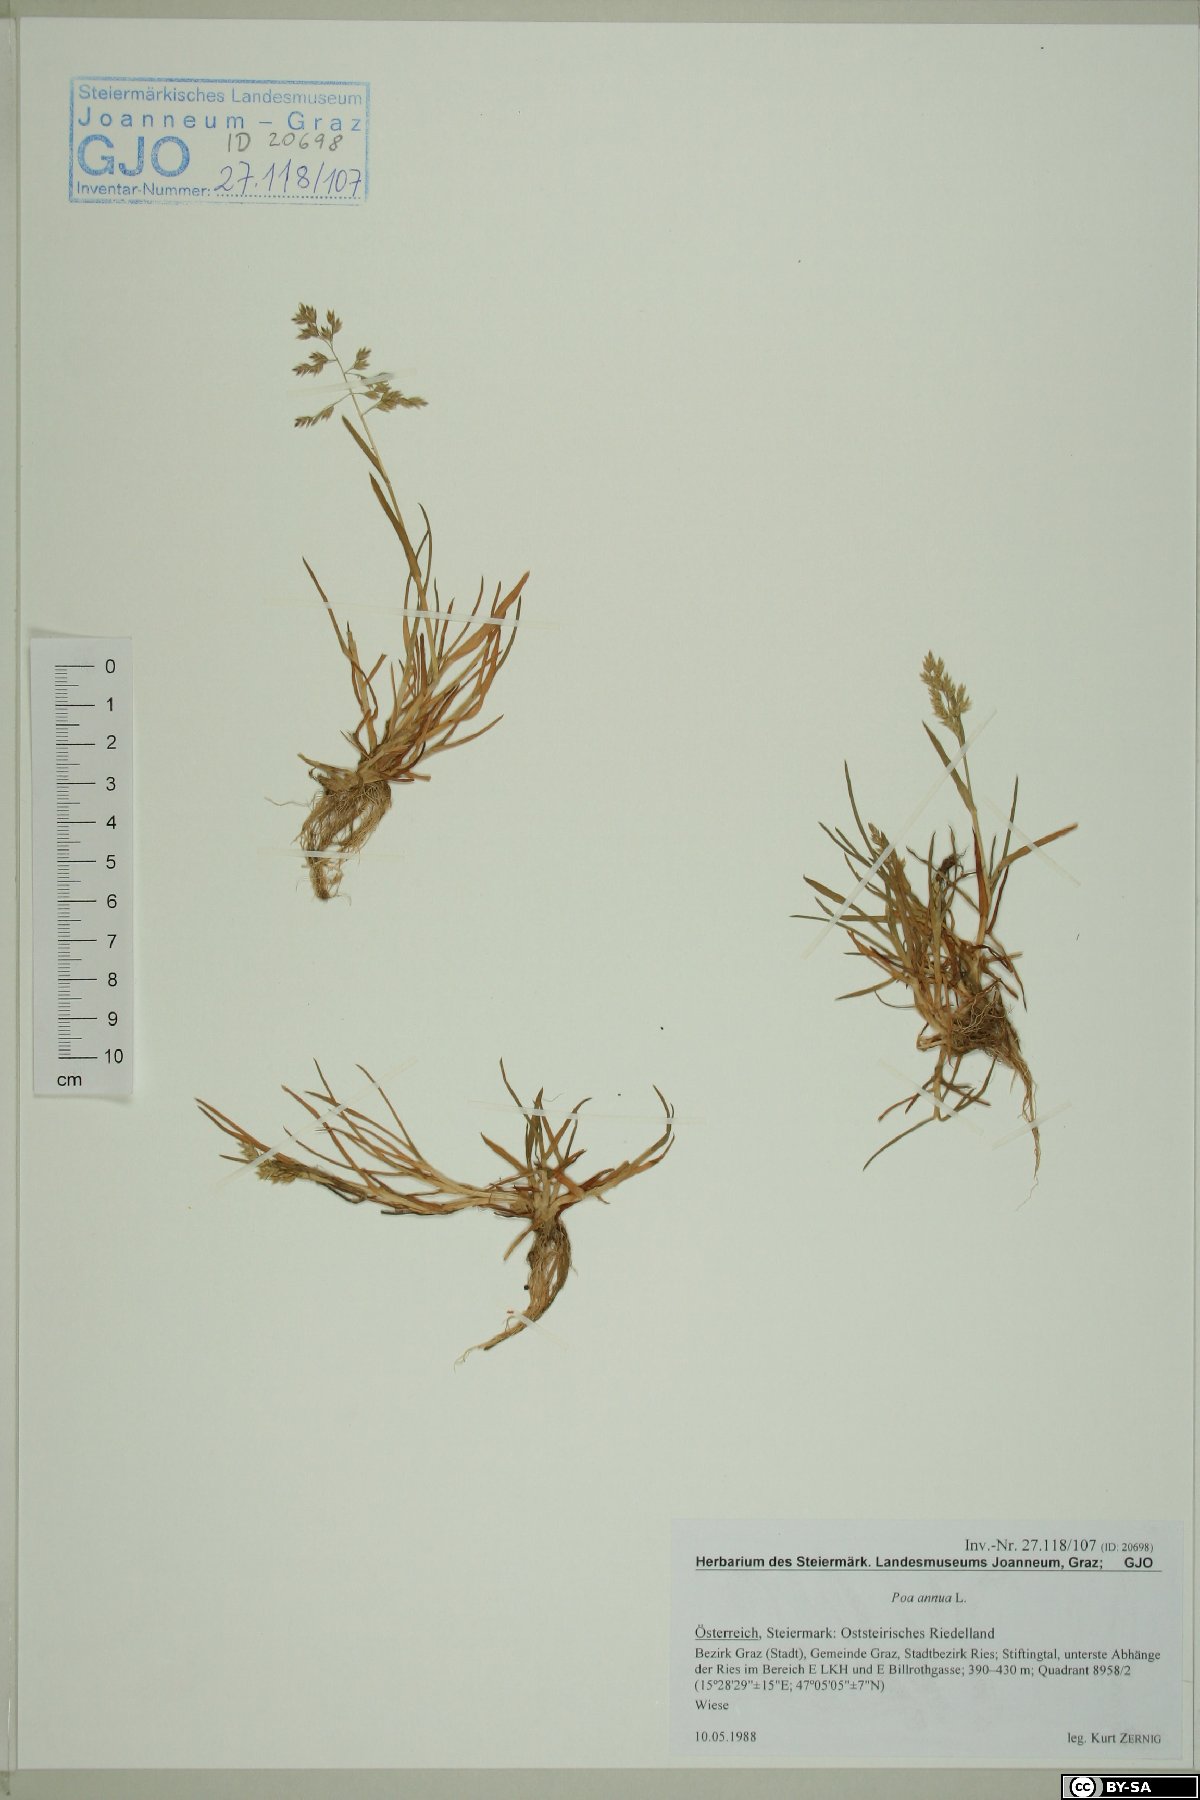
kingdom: Plantae
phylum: Tracheophyta
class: Liliopsida
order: Poales
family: Poaceae
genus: Poa
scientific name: Poa annua
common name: Annual bluegrass
